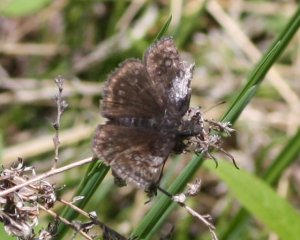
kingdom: Animalia
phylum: Arthropoda
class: Insecta
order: Lepidoptera
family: Hesperiidae
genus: Erynnis
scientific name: Erynnis icelus
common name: Dreamy Duskywing
